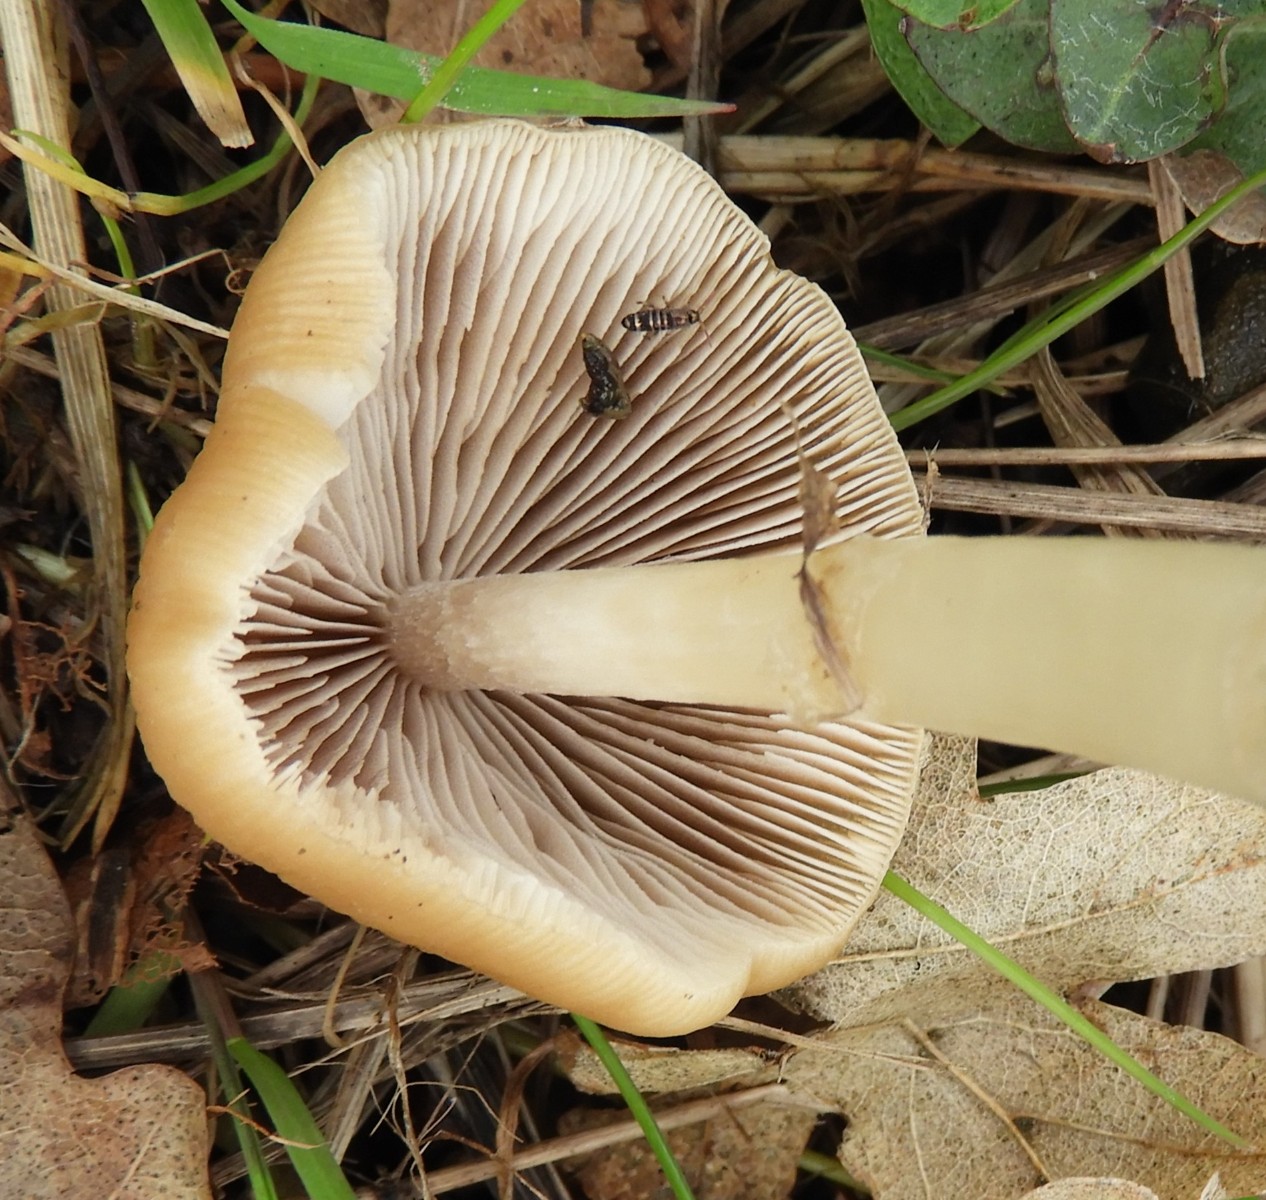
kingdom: Fungi
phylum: Basidiomycota
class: Agaricomycetes
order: Agaricales
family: Psathyrellaceae
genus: Candolleomyces
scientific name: Candolleomyces candolleanus
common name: Candolles mørkhat
